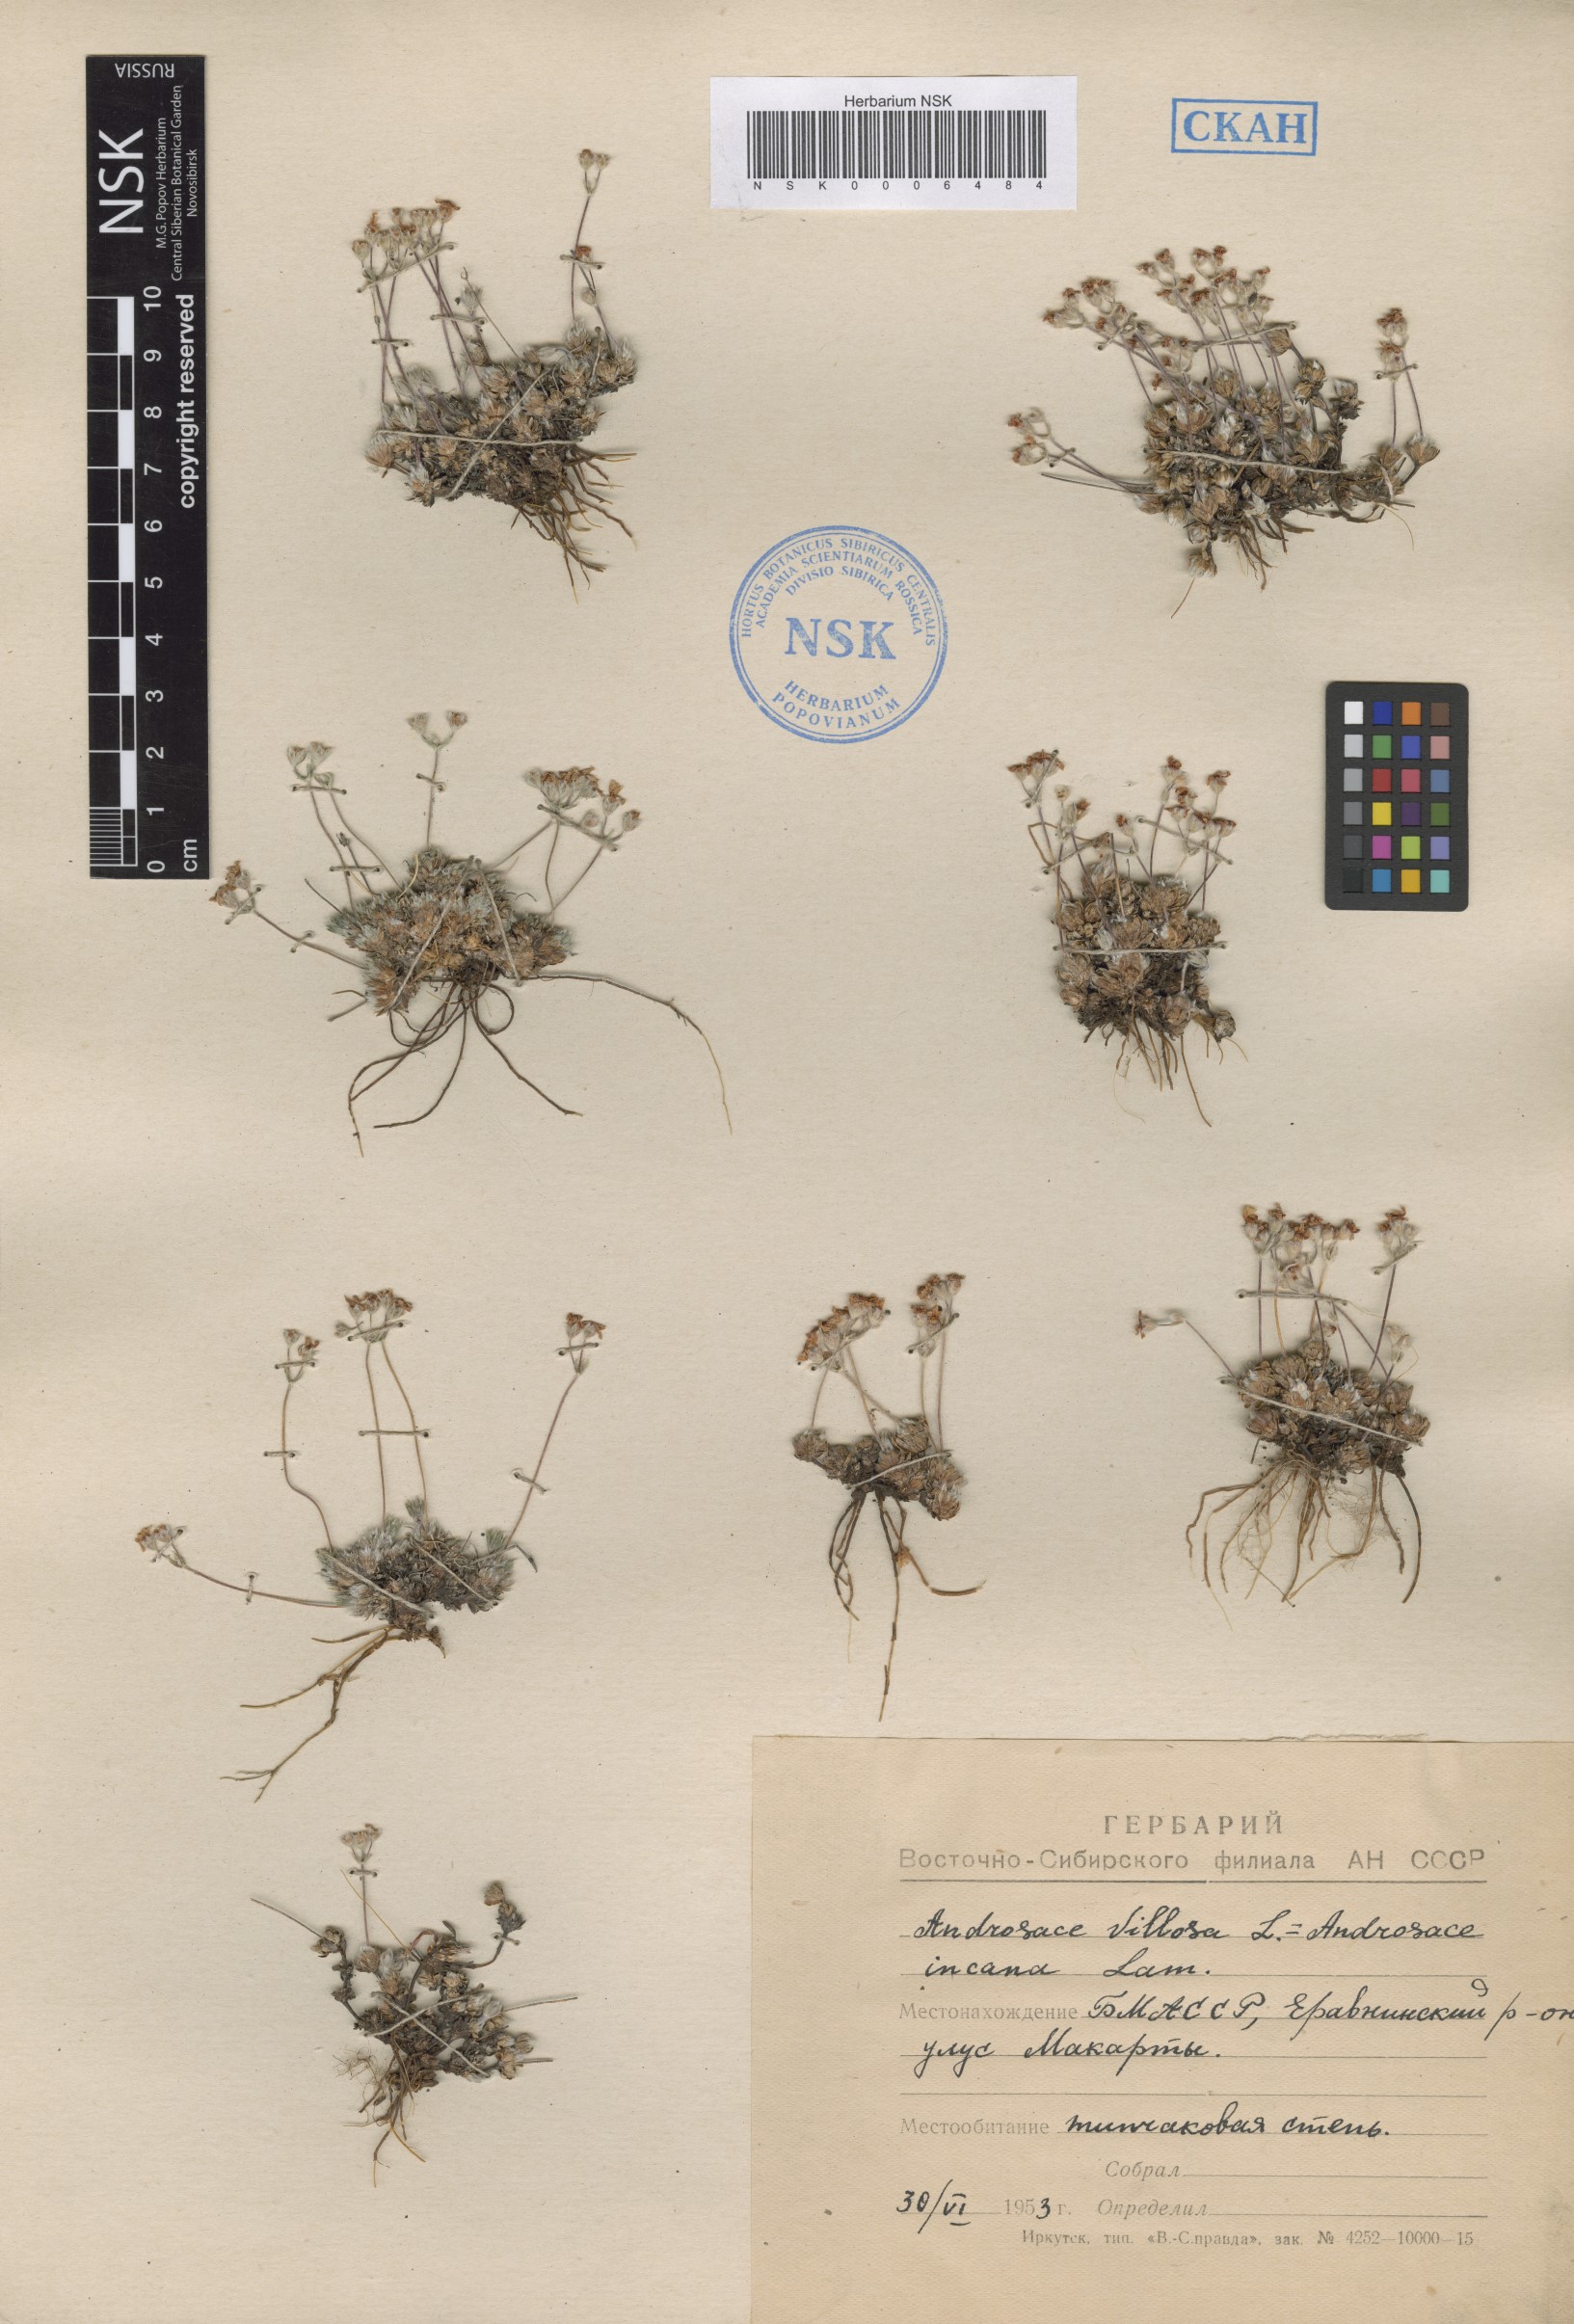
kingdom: Plantae
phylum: Tracheophyta
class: Magnoliopsida
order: Ericales
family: Primulaceae
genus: Androsace
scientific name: Androsace incana
